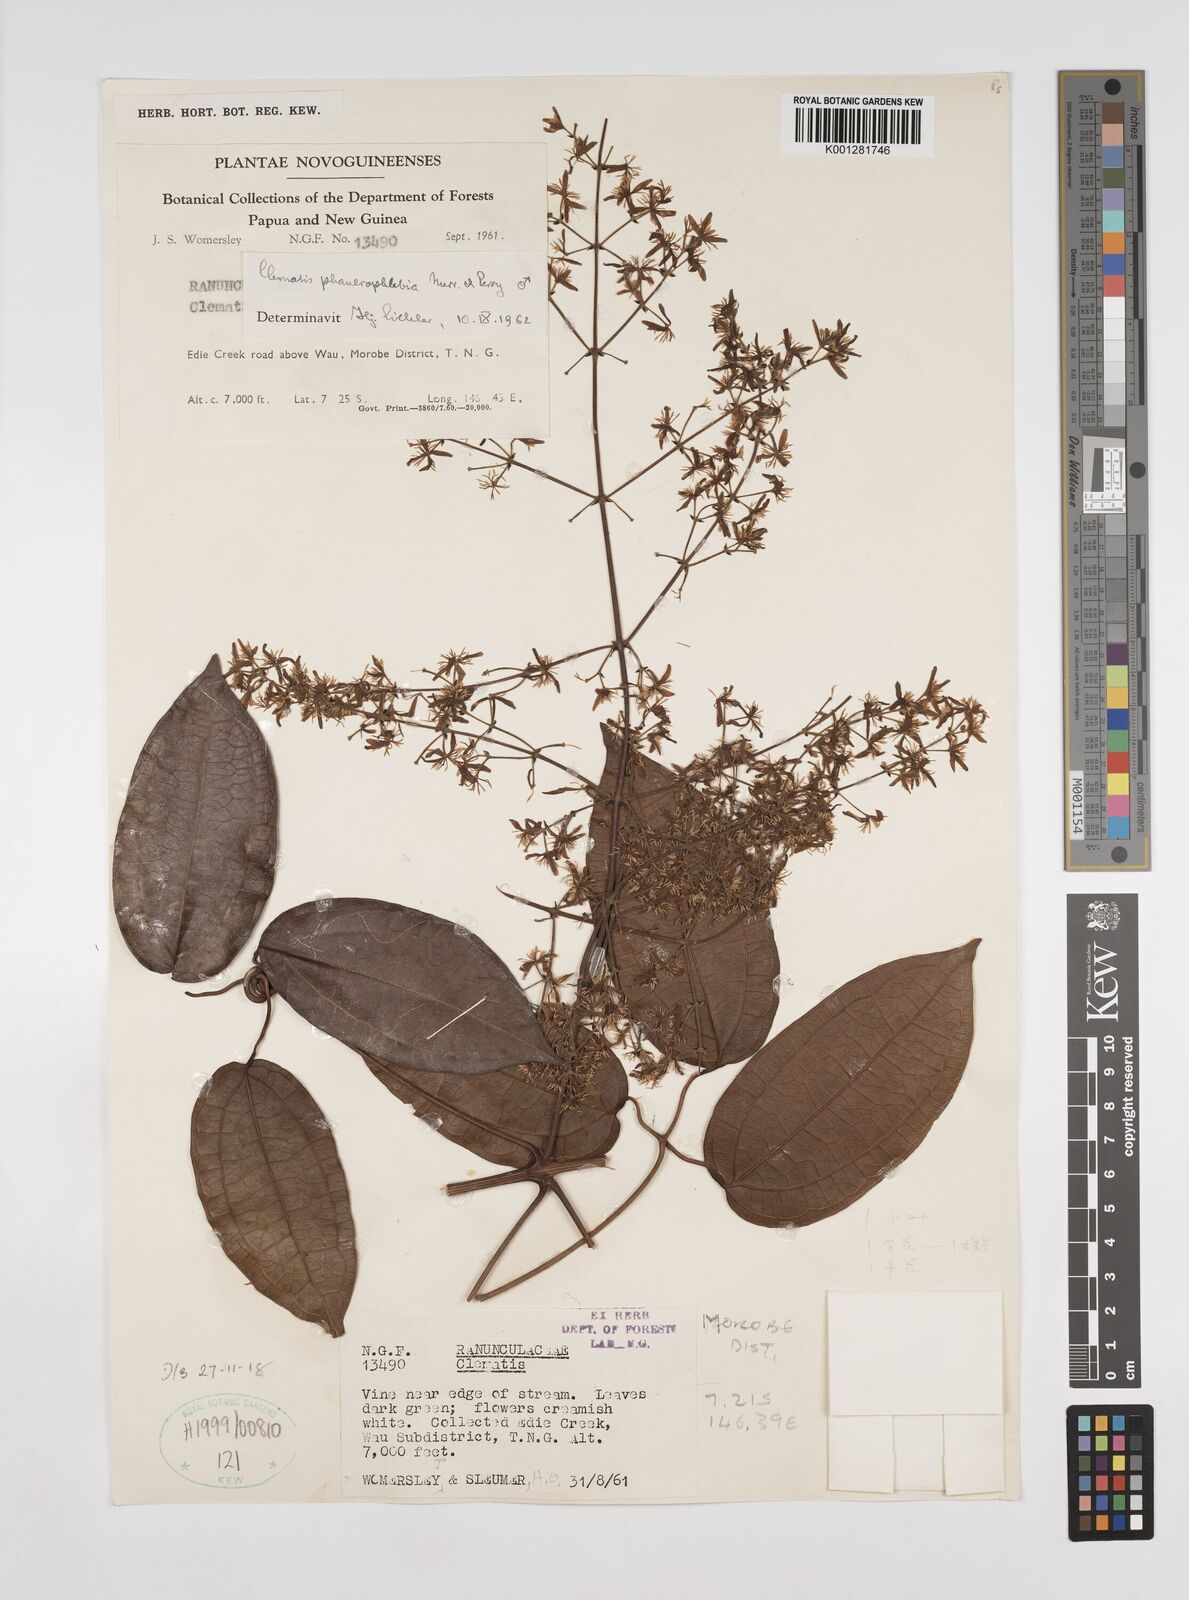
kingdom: Plantae
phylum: Tracheophyta
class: Magnoliopsida
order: Ranunculales
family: Ranunculaceae
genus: Clematis
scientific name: Clematis phanerophlebia
